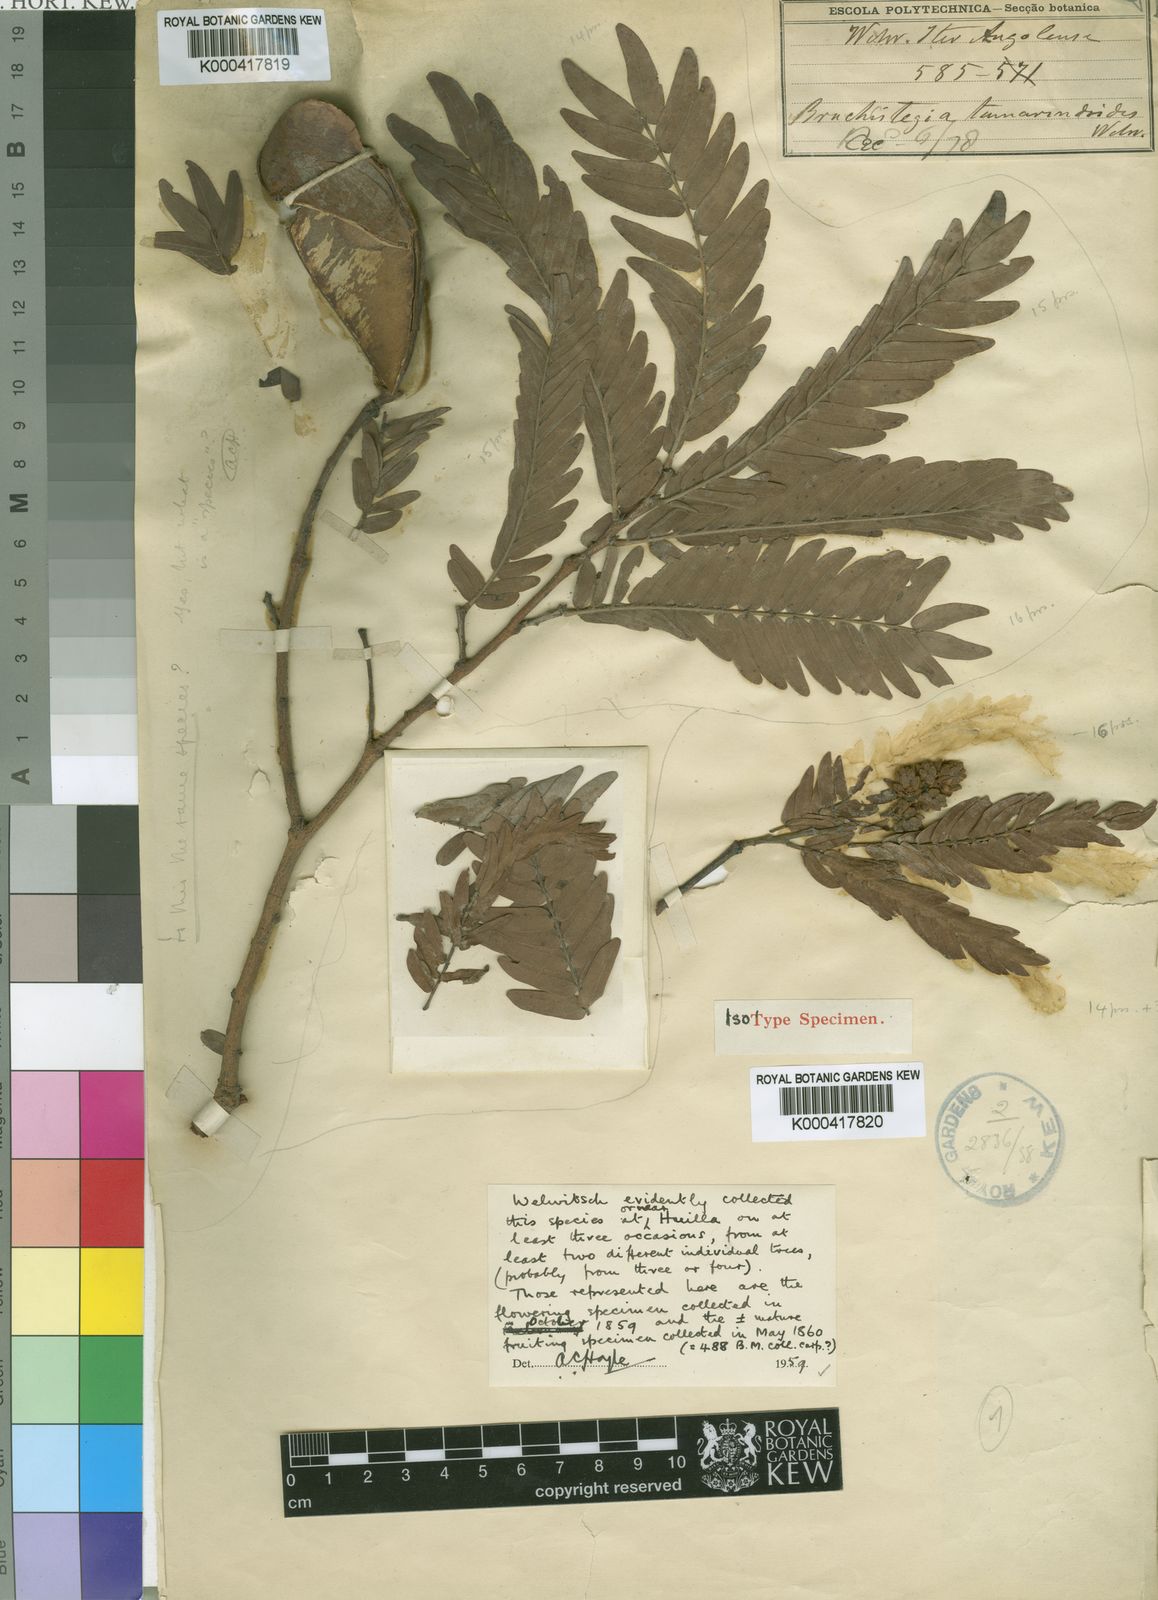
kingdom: Plantae
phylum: Tracheophyta
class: Magnoliopsida
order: Fabales
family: Fabaceae
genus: Brachystegia
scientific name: Brachystegia tamarindoides
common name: Mountain acacia
